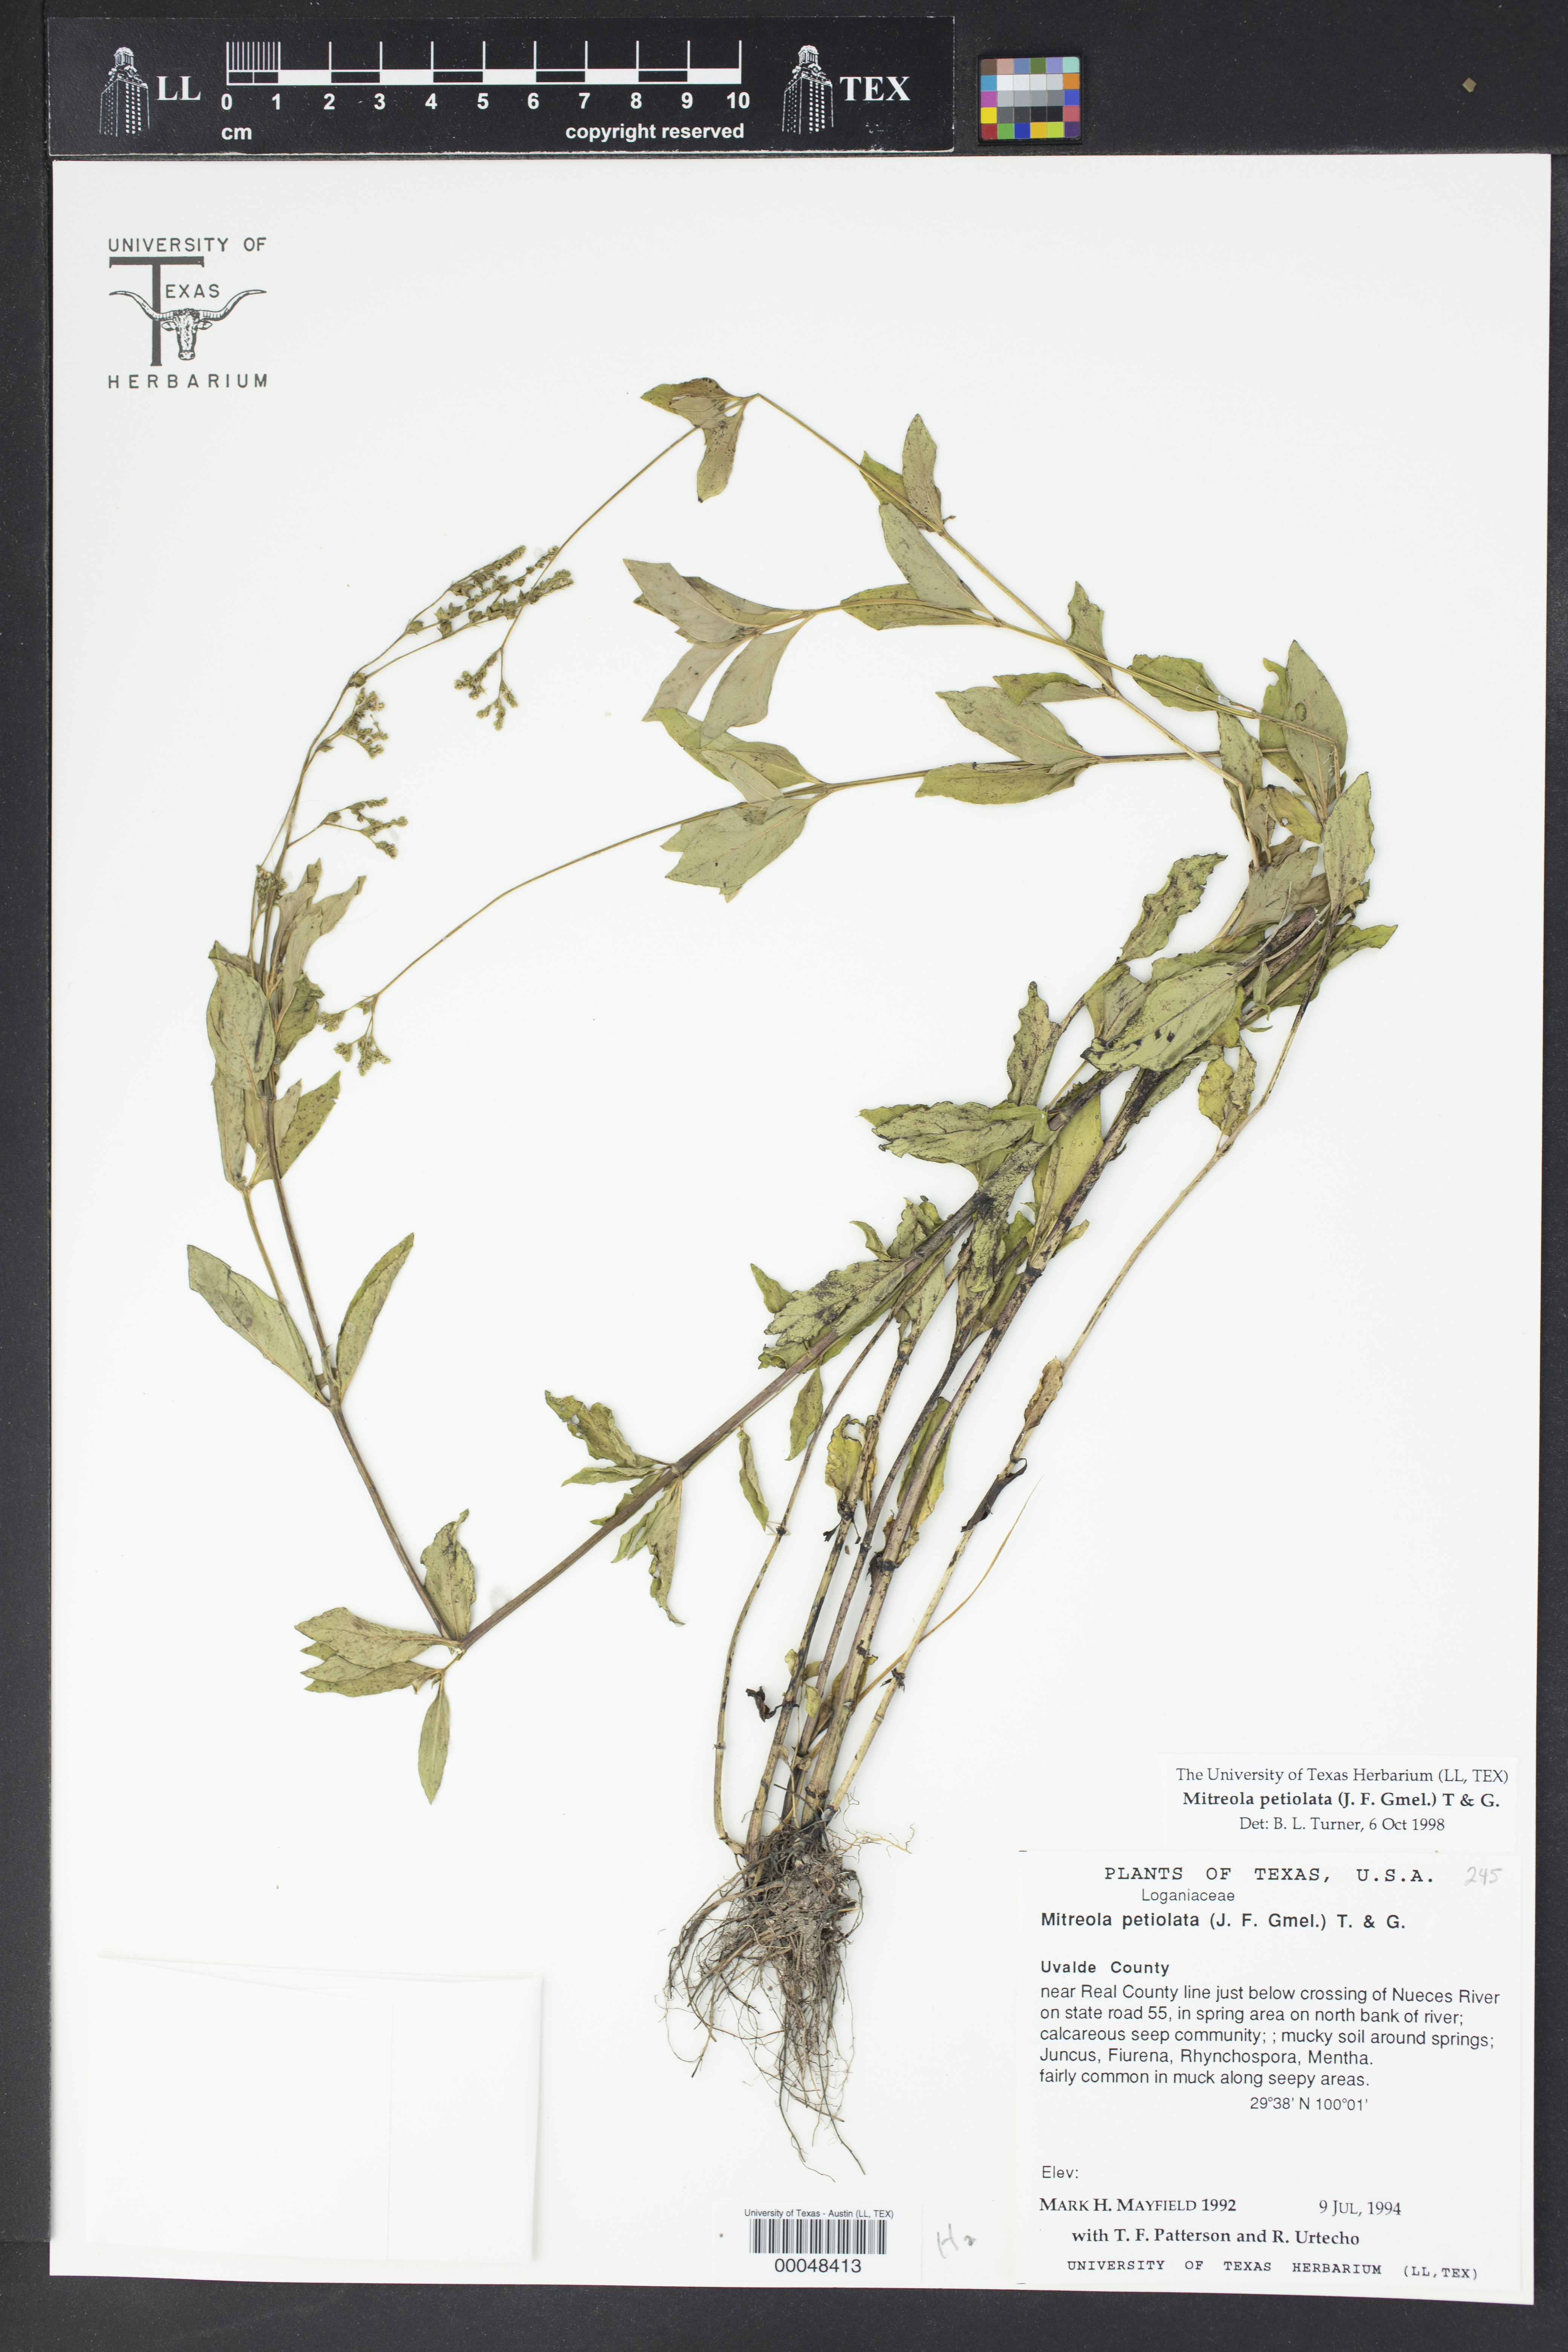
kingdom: Plantae
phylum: Tracheophyta
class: Magnoliopsida
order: Gentianales
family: Loganiaceae
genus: Mitreola
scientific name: Mitreola petiolata
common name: Lax hornpod
